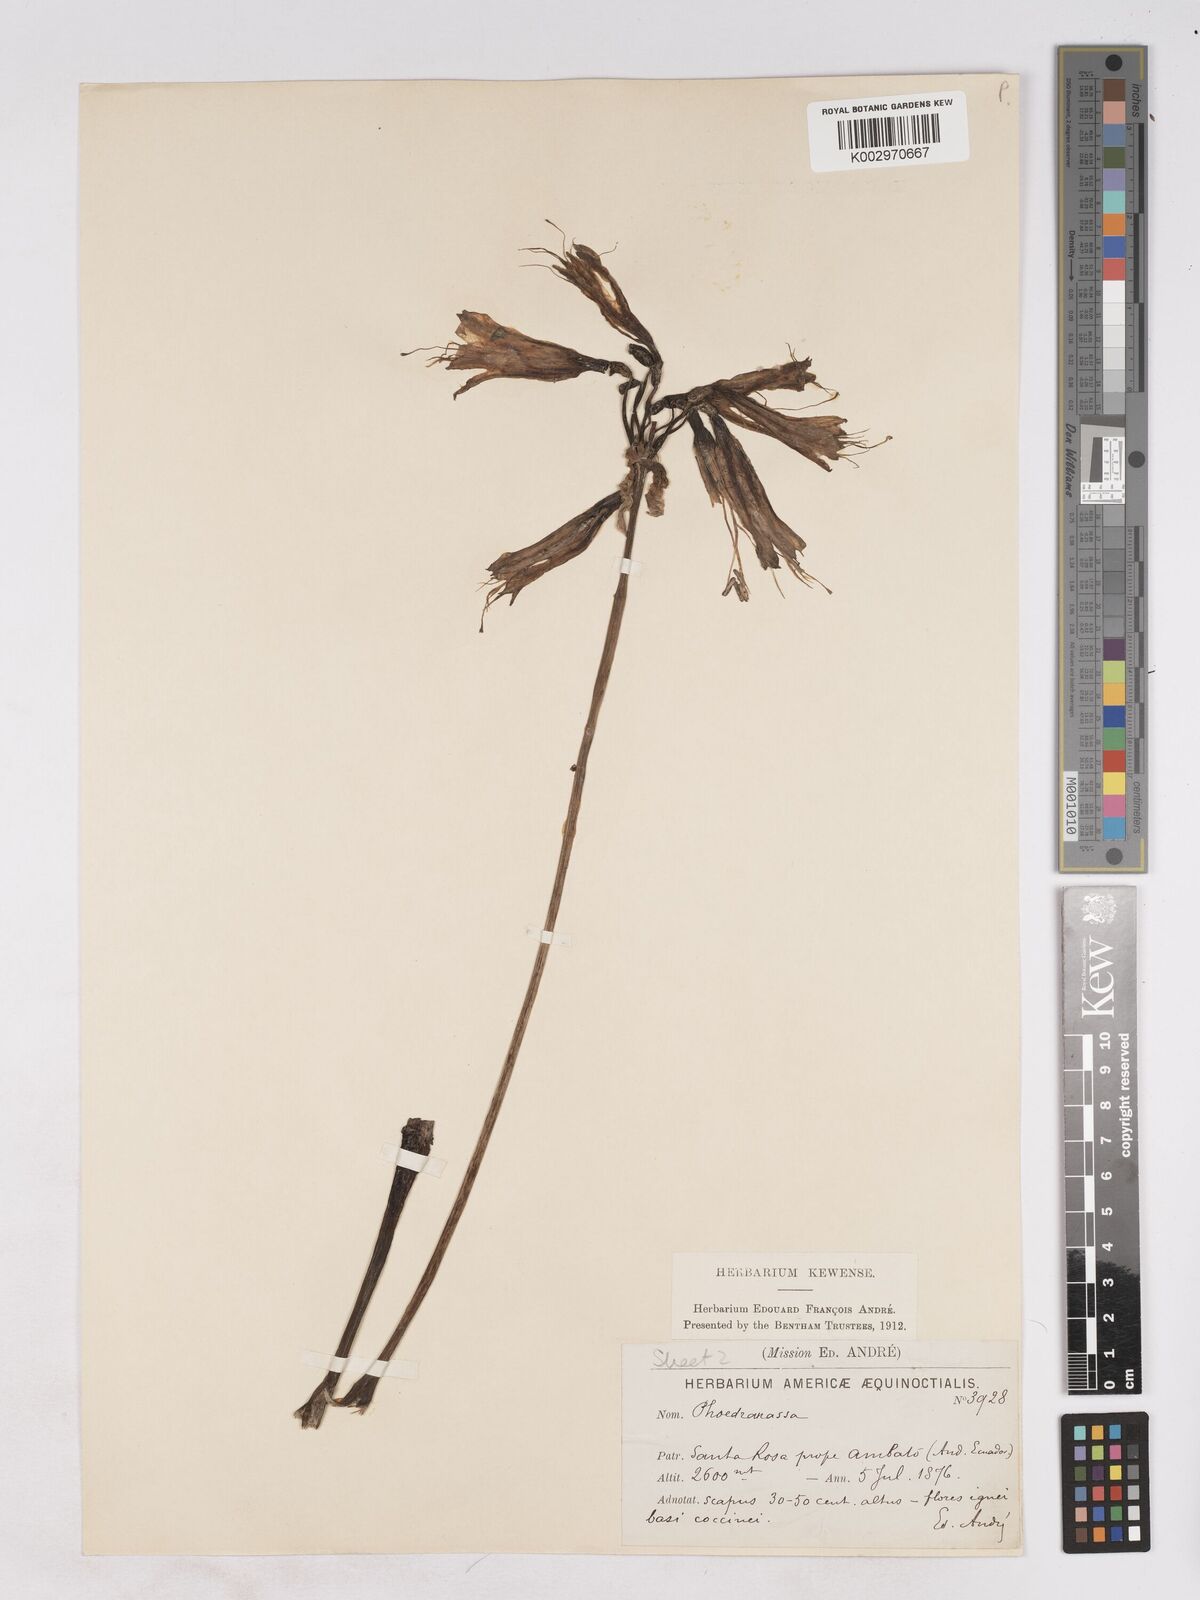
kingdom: Plantae
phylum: Tracheophyta
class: Liliopsida
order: Asparagales
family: Amaryllidaceae
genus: Phaedranassa
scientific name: Phaedranassa schizantha
